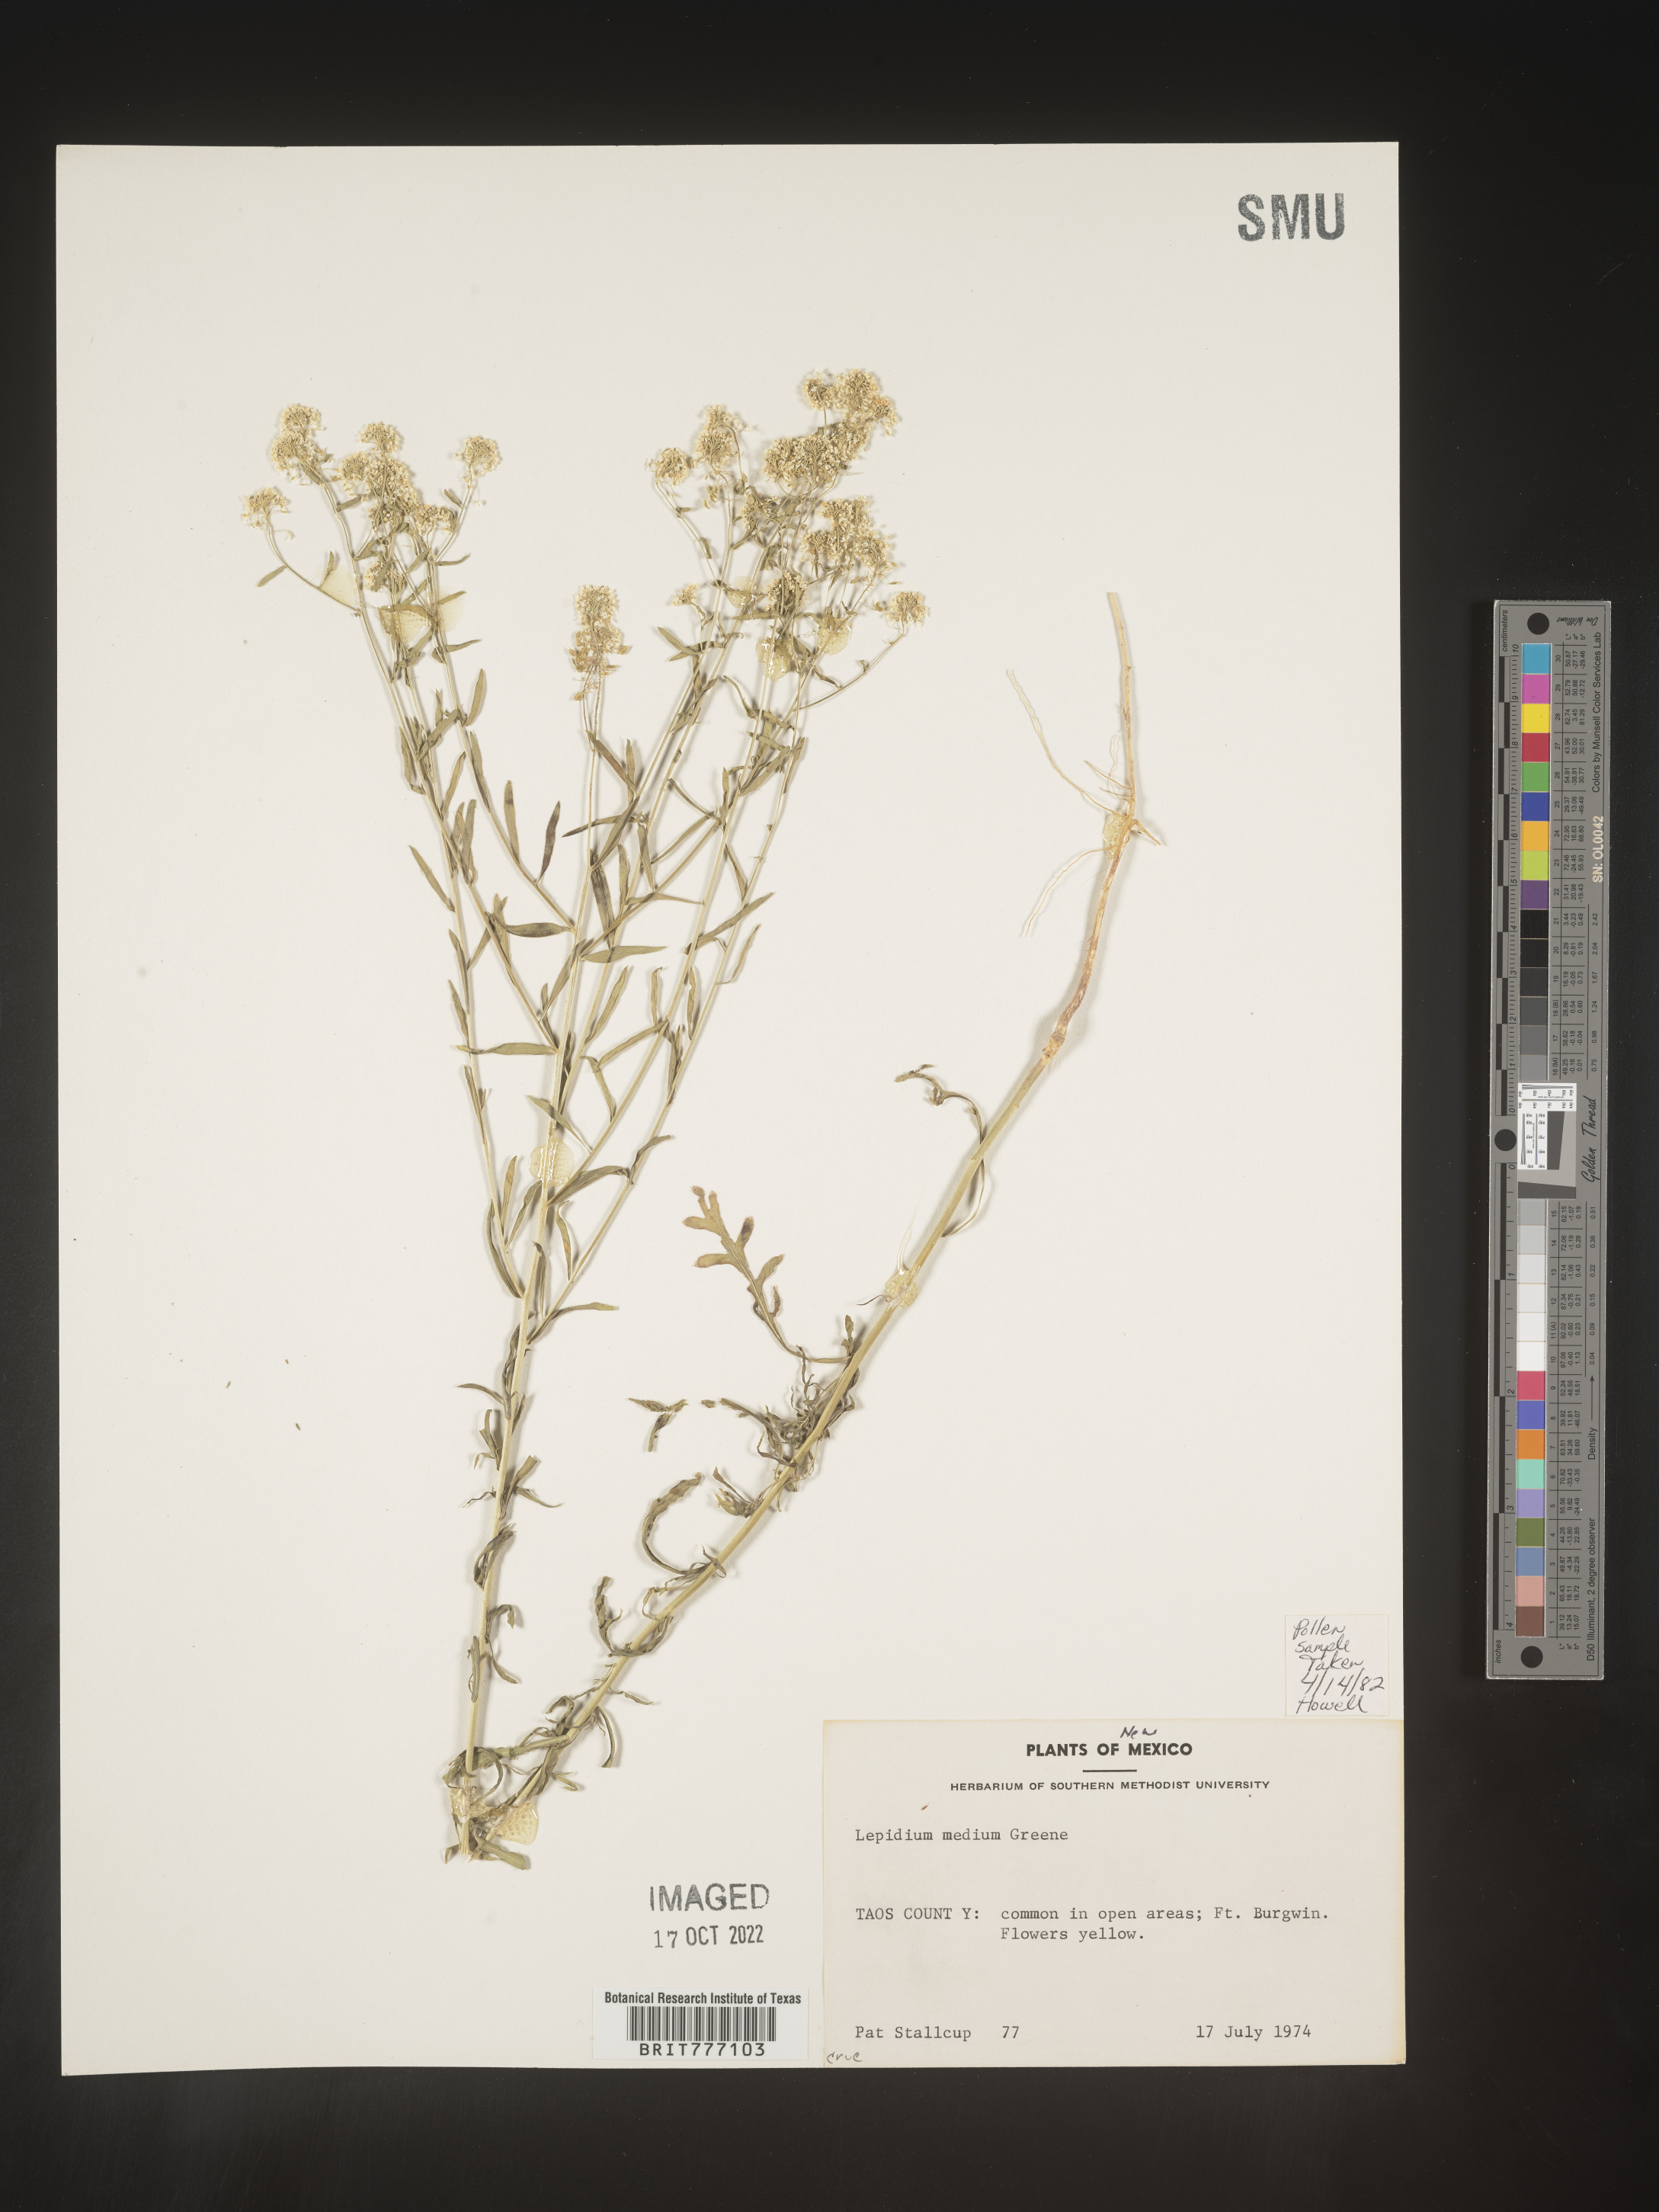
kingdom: Plantae
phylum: Tracheophyta
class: Magnoliopsida
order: Brassicales
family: Brassicaceae
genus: Lepidium
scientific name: Lepidium
